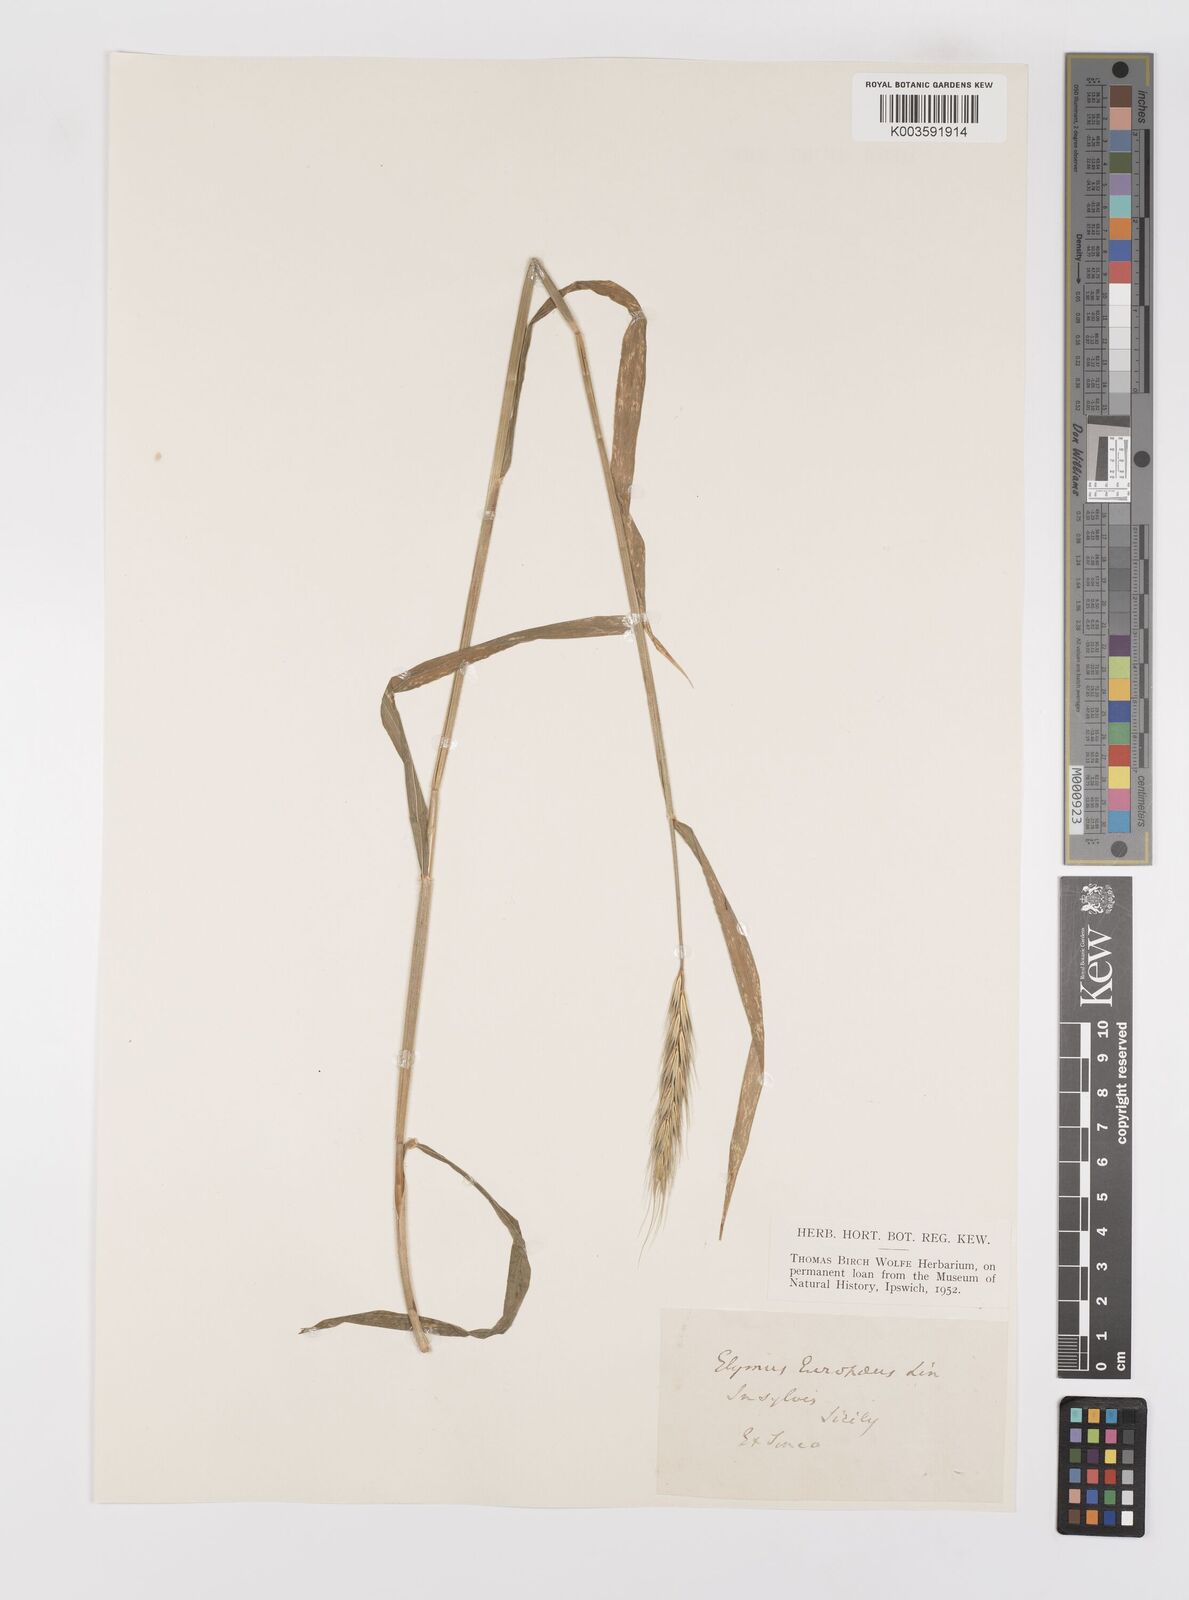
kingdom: Plantae
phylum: Tracheophyta
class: Liliopsida
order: Poales
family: Poaceae
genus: Hordelymus
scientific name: Hordelymus europaeus
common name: Wood-barley
